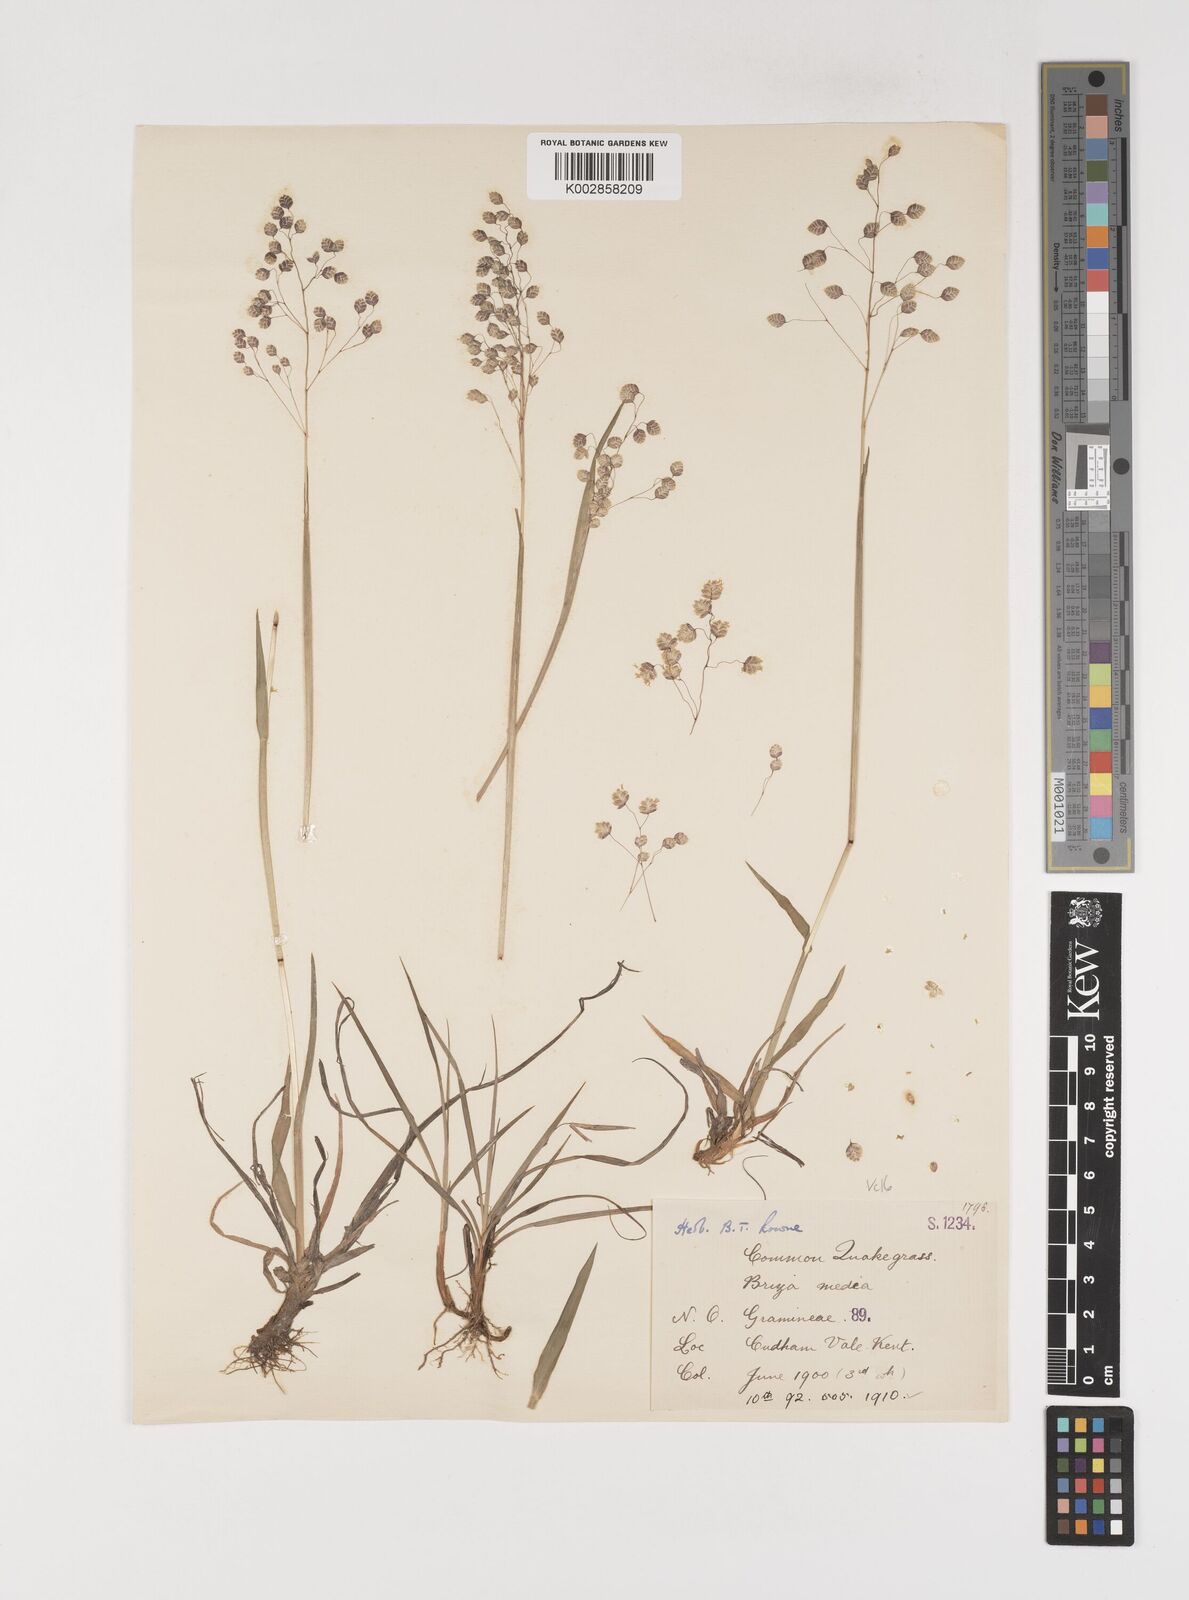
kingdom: Plantae
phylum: Tracheophyta
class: Liliopsida
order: Poales
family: Poaceae
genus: Briza
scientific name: Briza media
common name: Quaking grass
